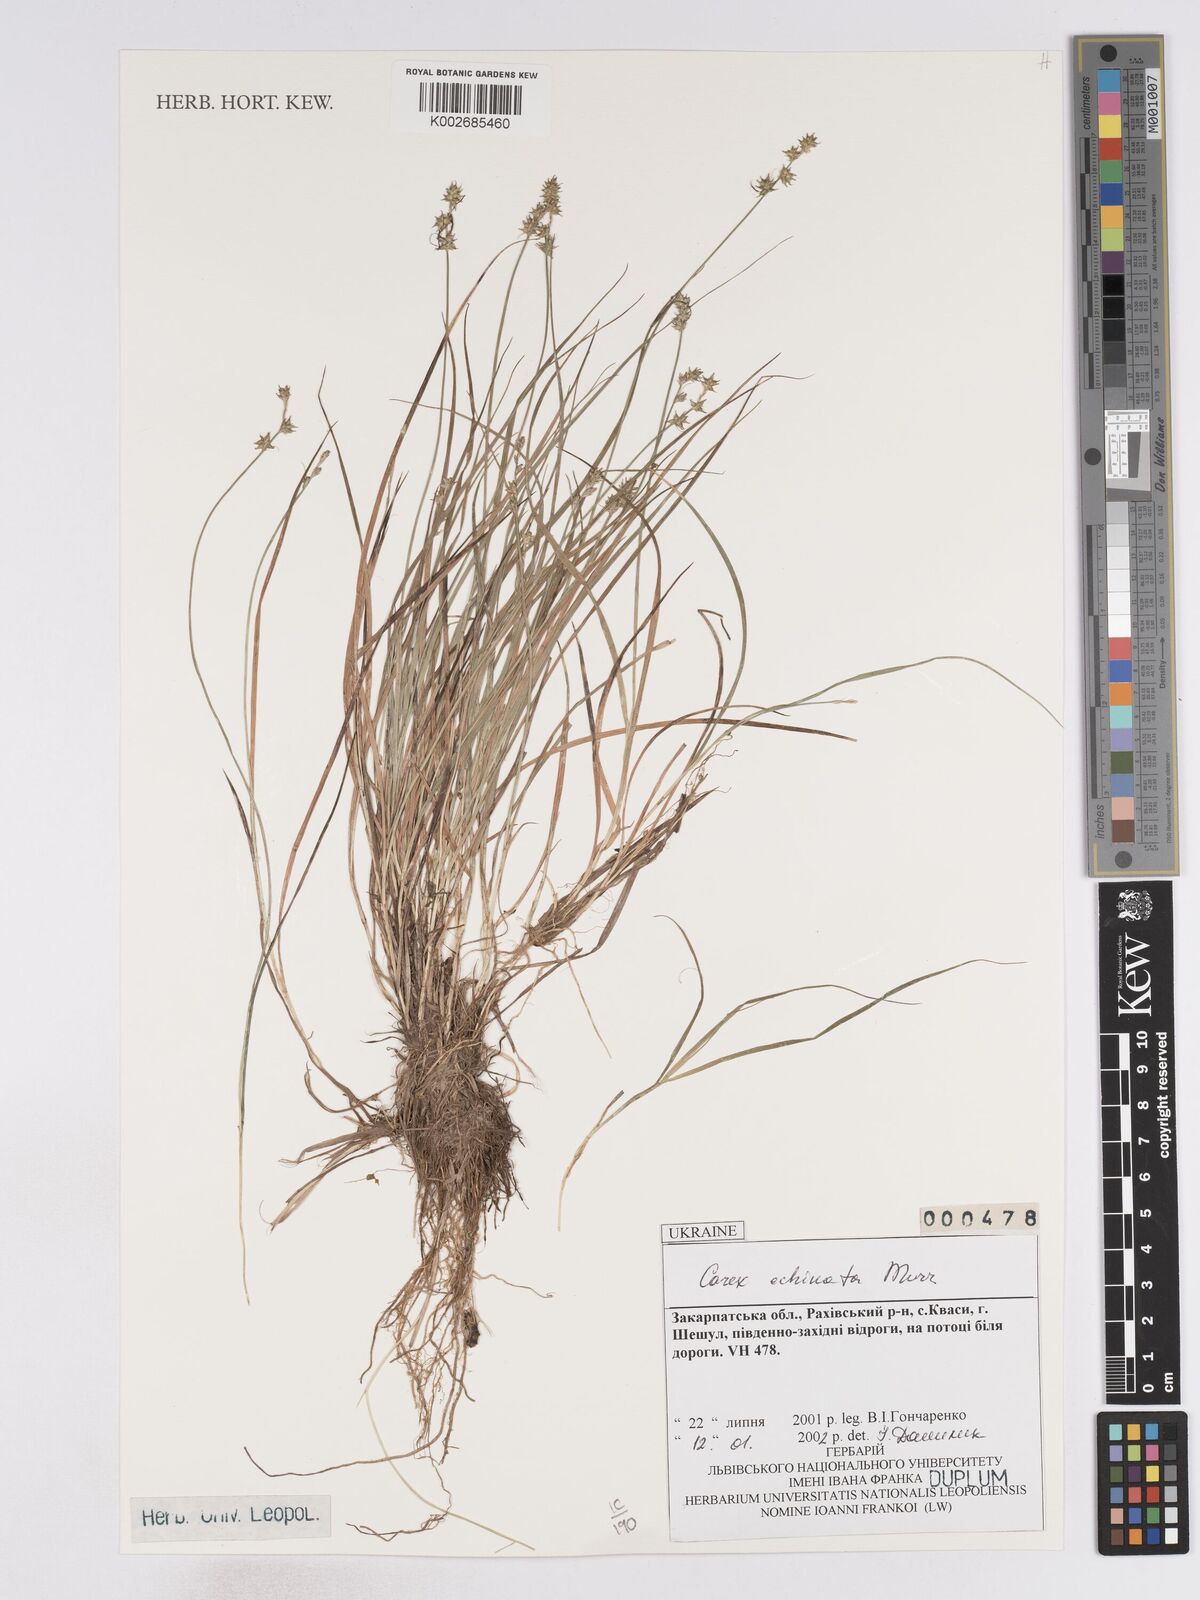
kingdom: Plantae
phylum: Tracheophyta
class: Liliopsida
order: Poales
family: Cyperaceae
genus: Carex
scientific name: Carex echinata
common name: Star sedge
